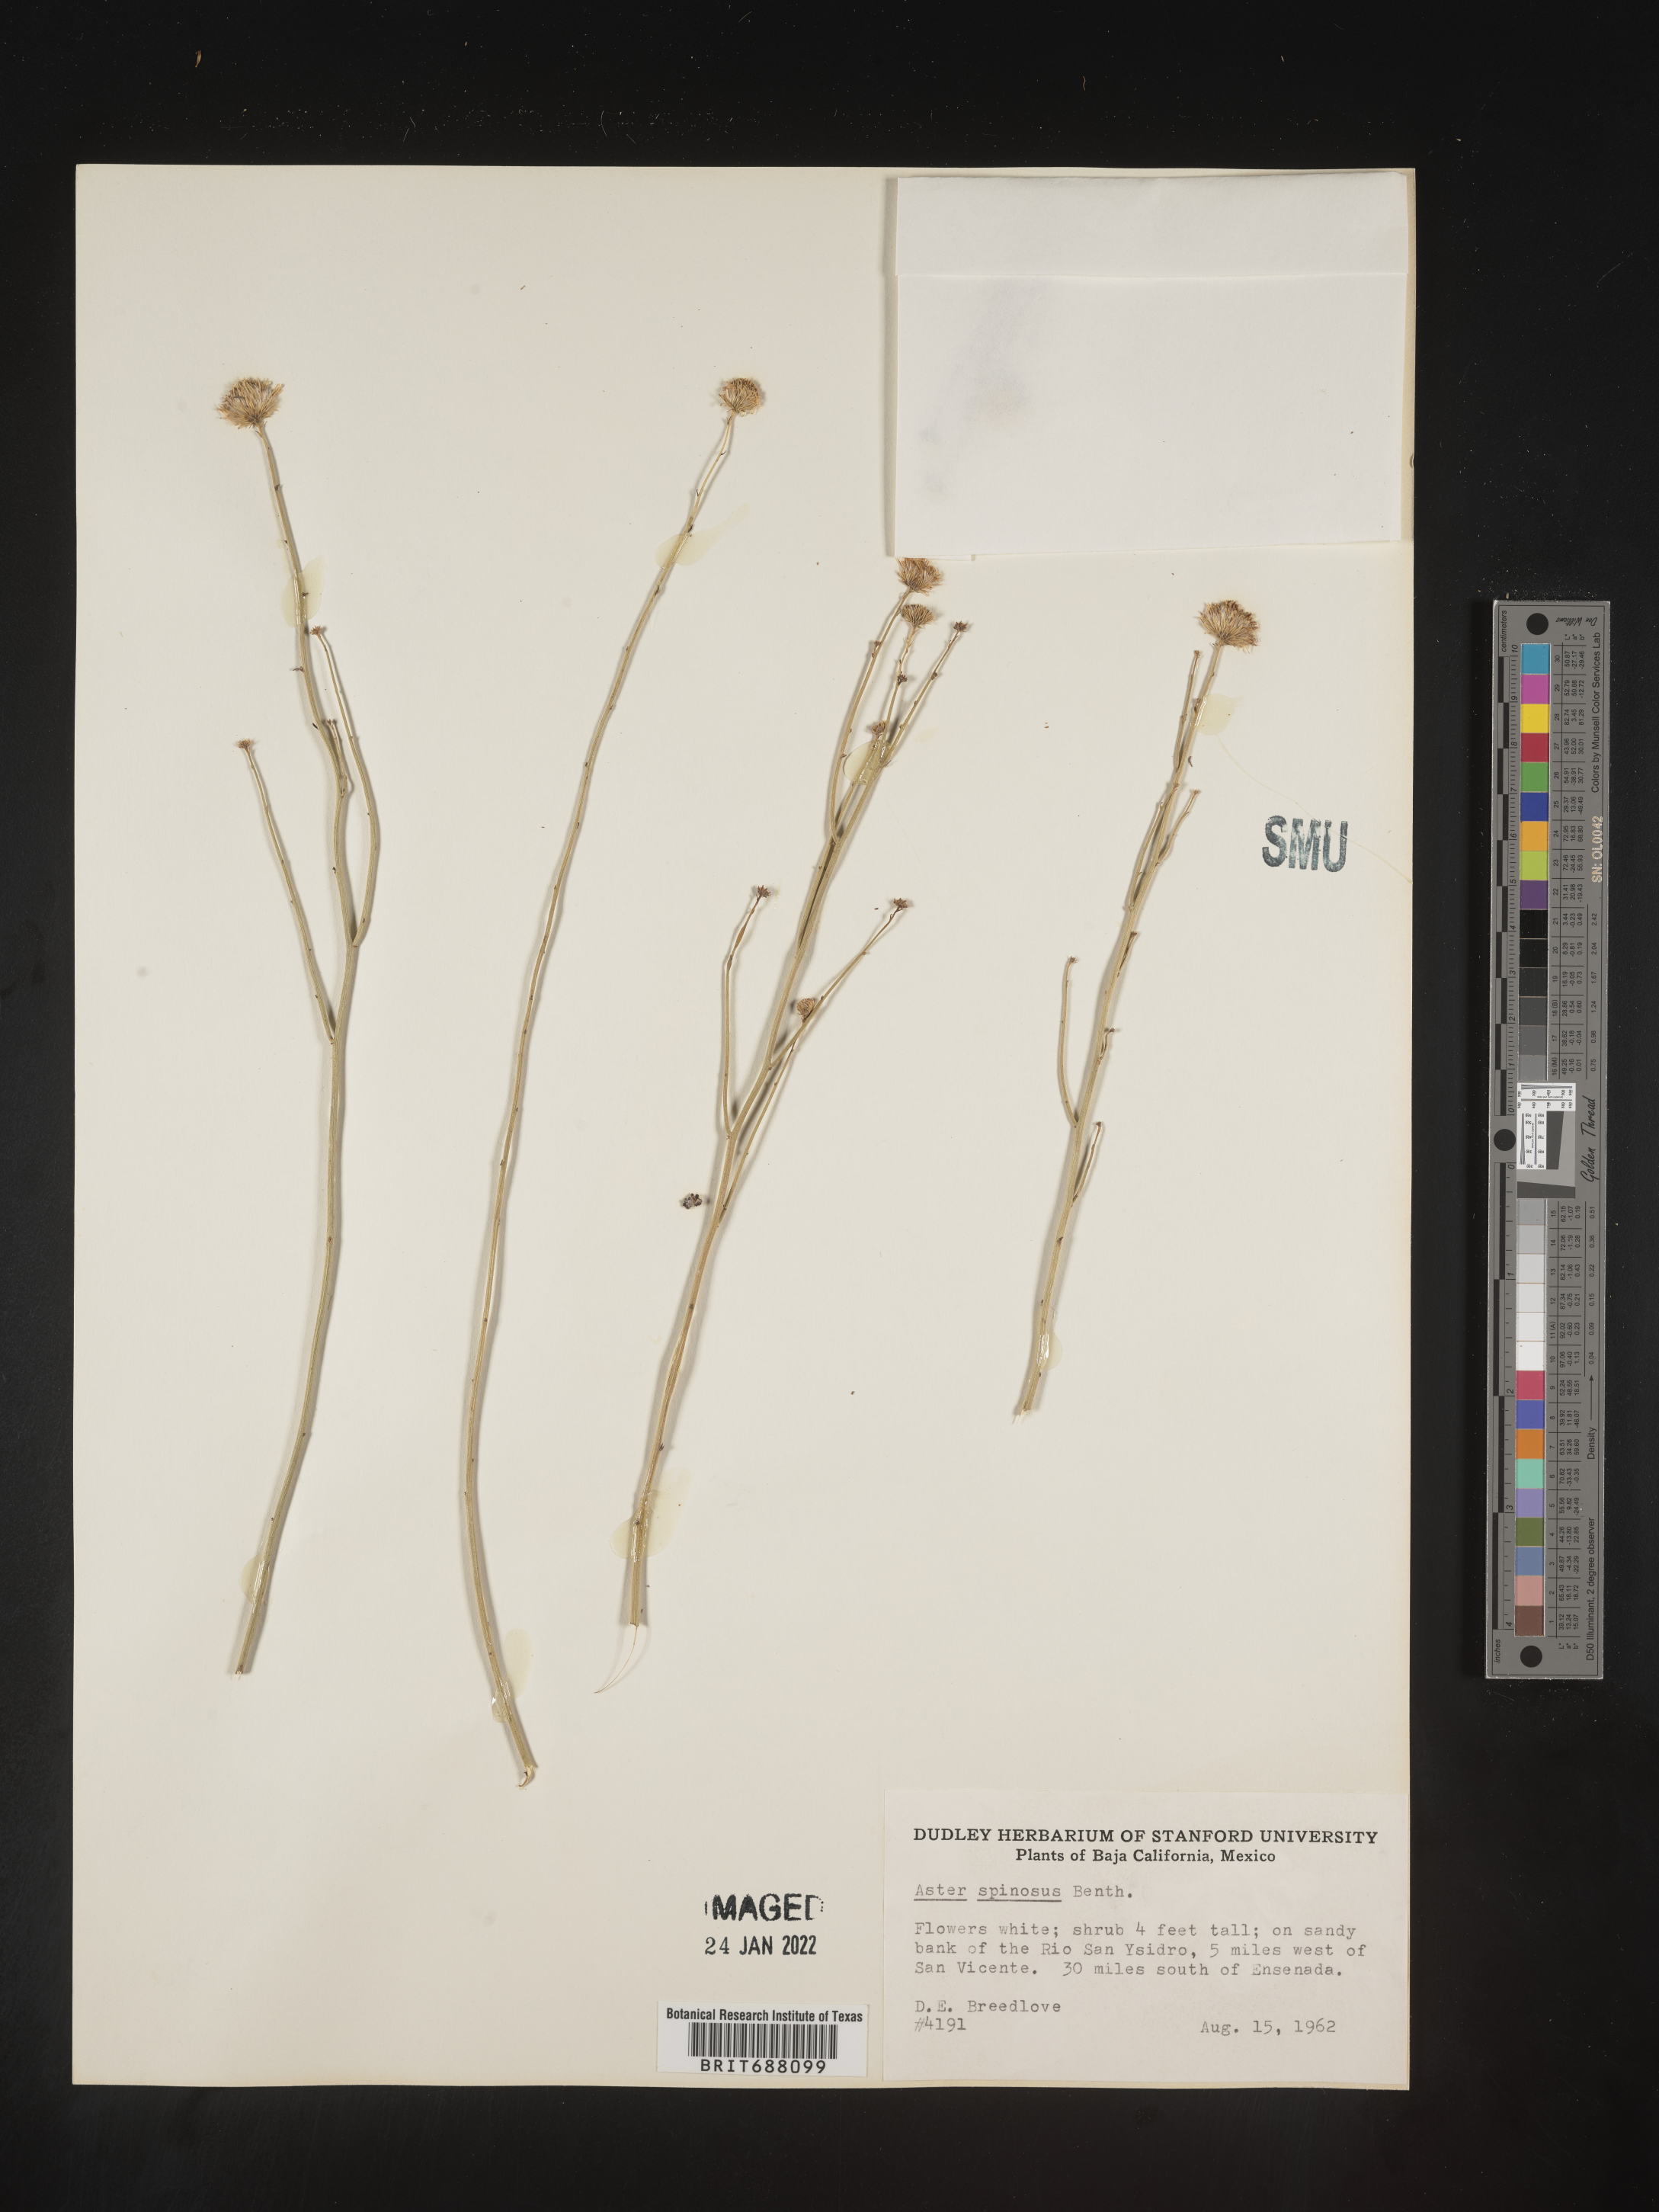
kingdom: Plantae
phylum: Tracheophyta
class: Magnoliopsida
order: Asterales
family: Asteraceae
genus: Chloracantha
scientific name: Chloracantha
